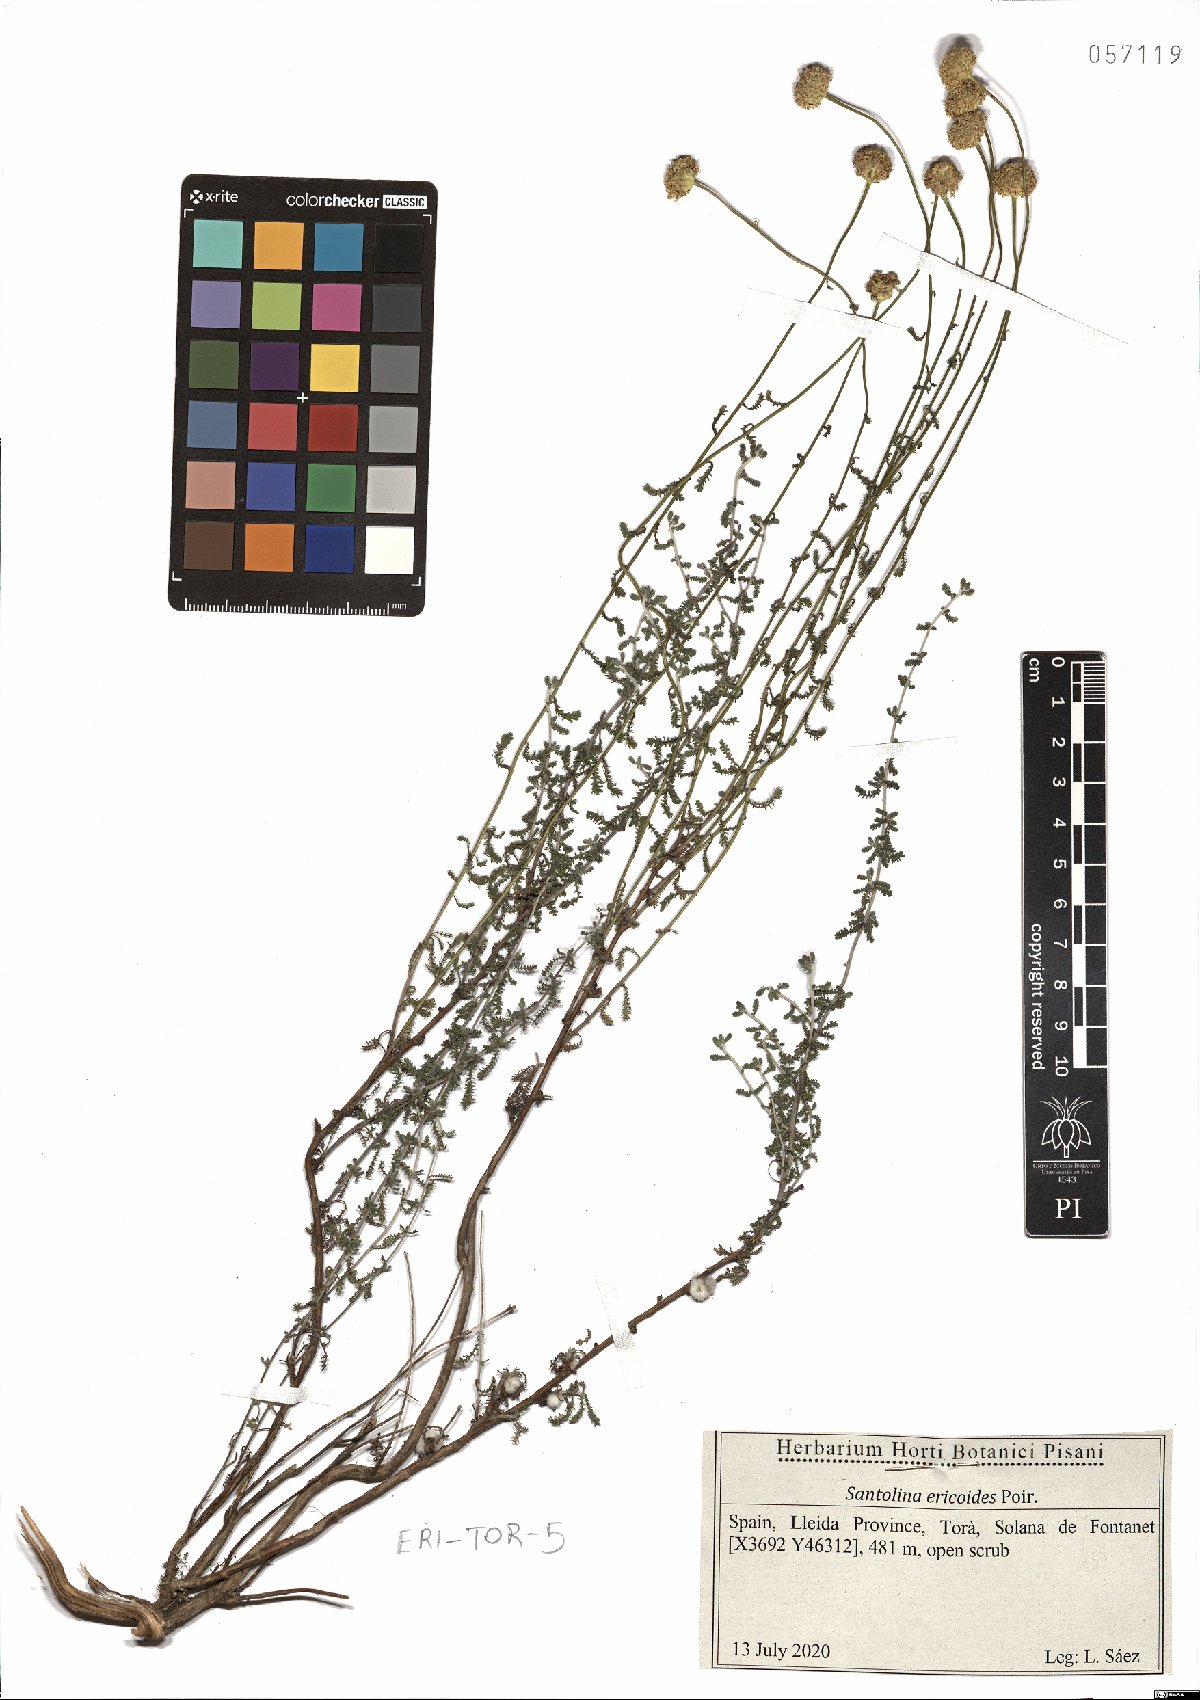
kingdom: Plantae
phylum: Tracheophyta
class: Magnoliopsida
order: Asterales
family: Asteraceae
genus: Santolina
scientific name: Santolina ericoides
